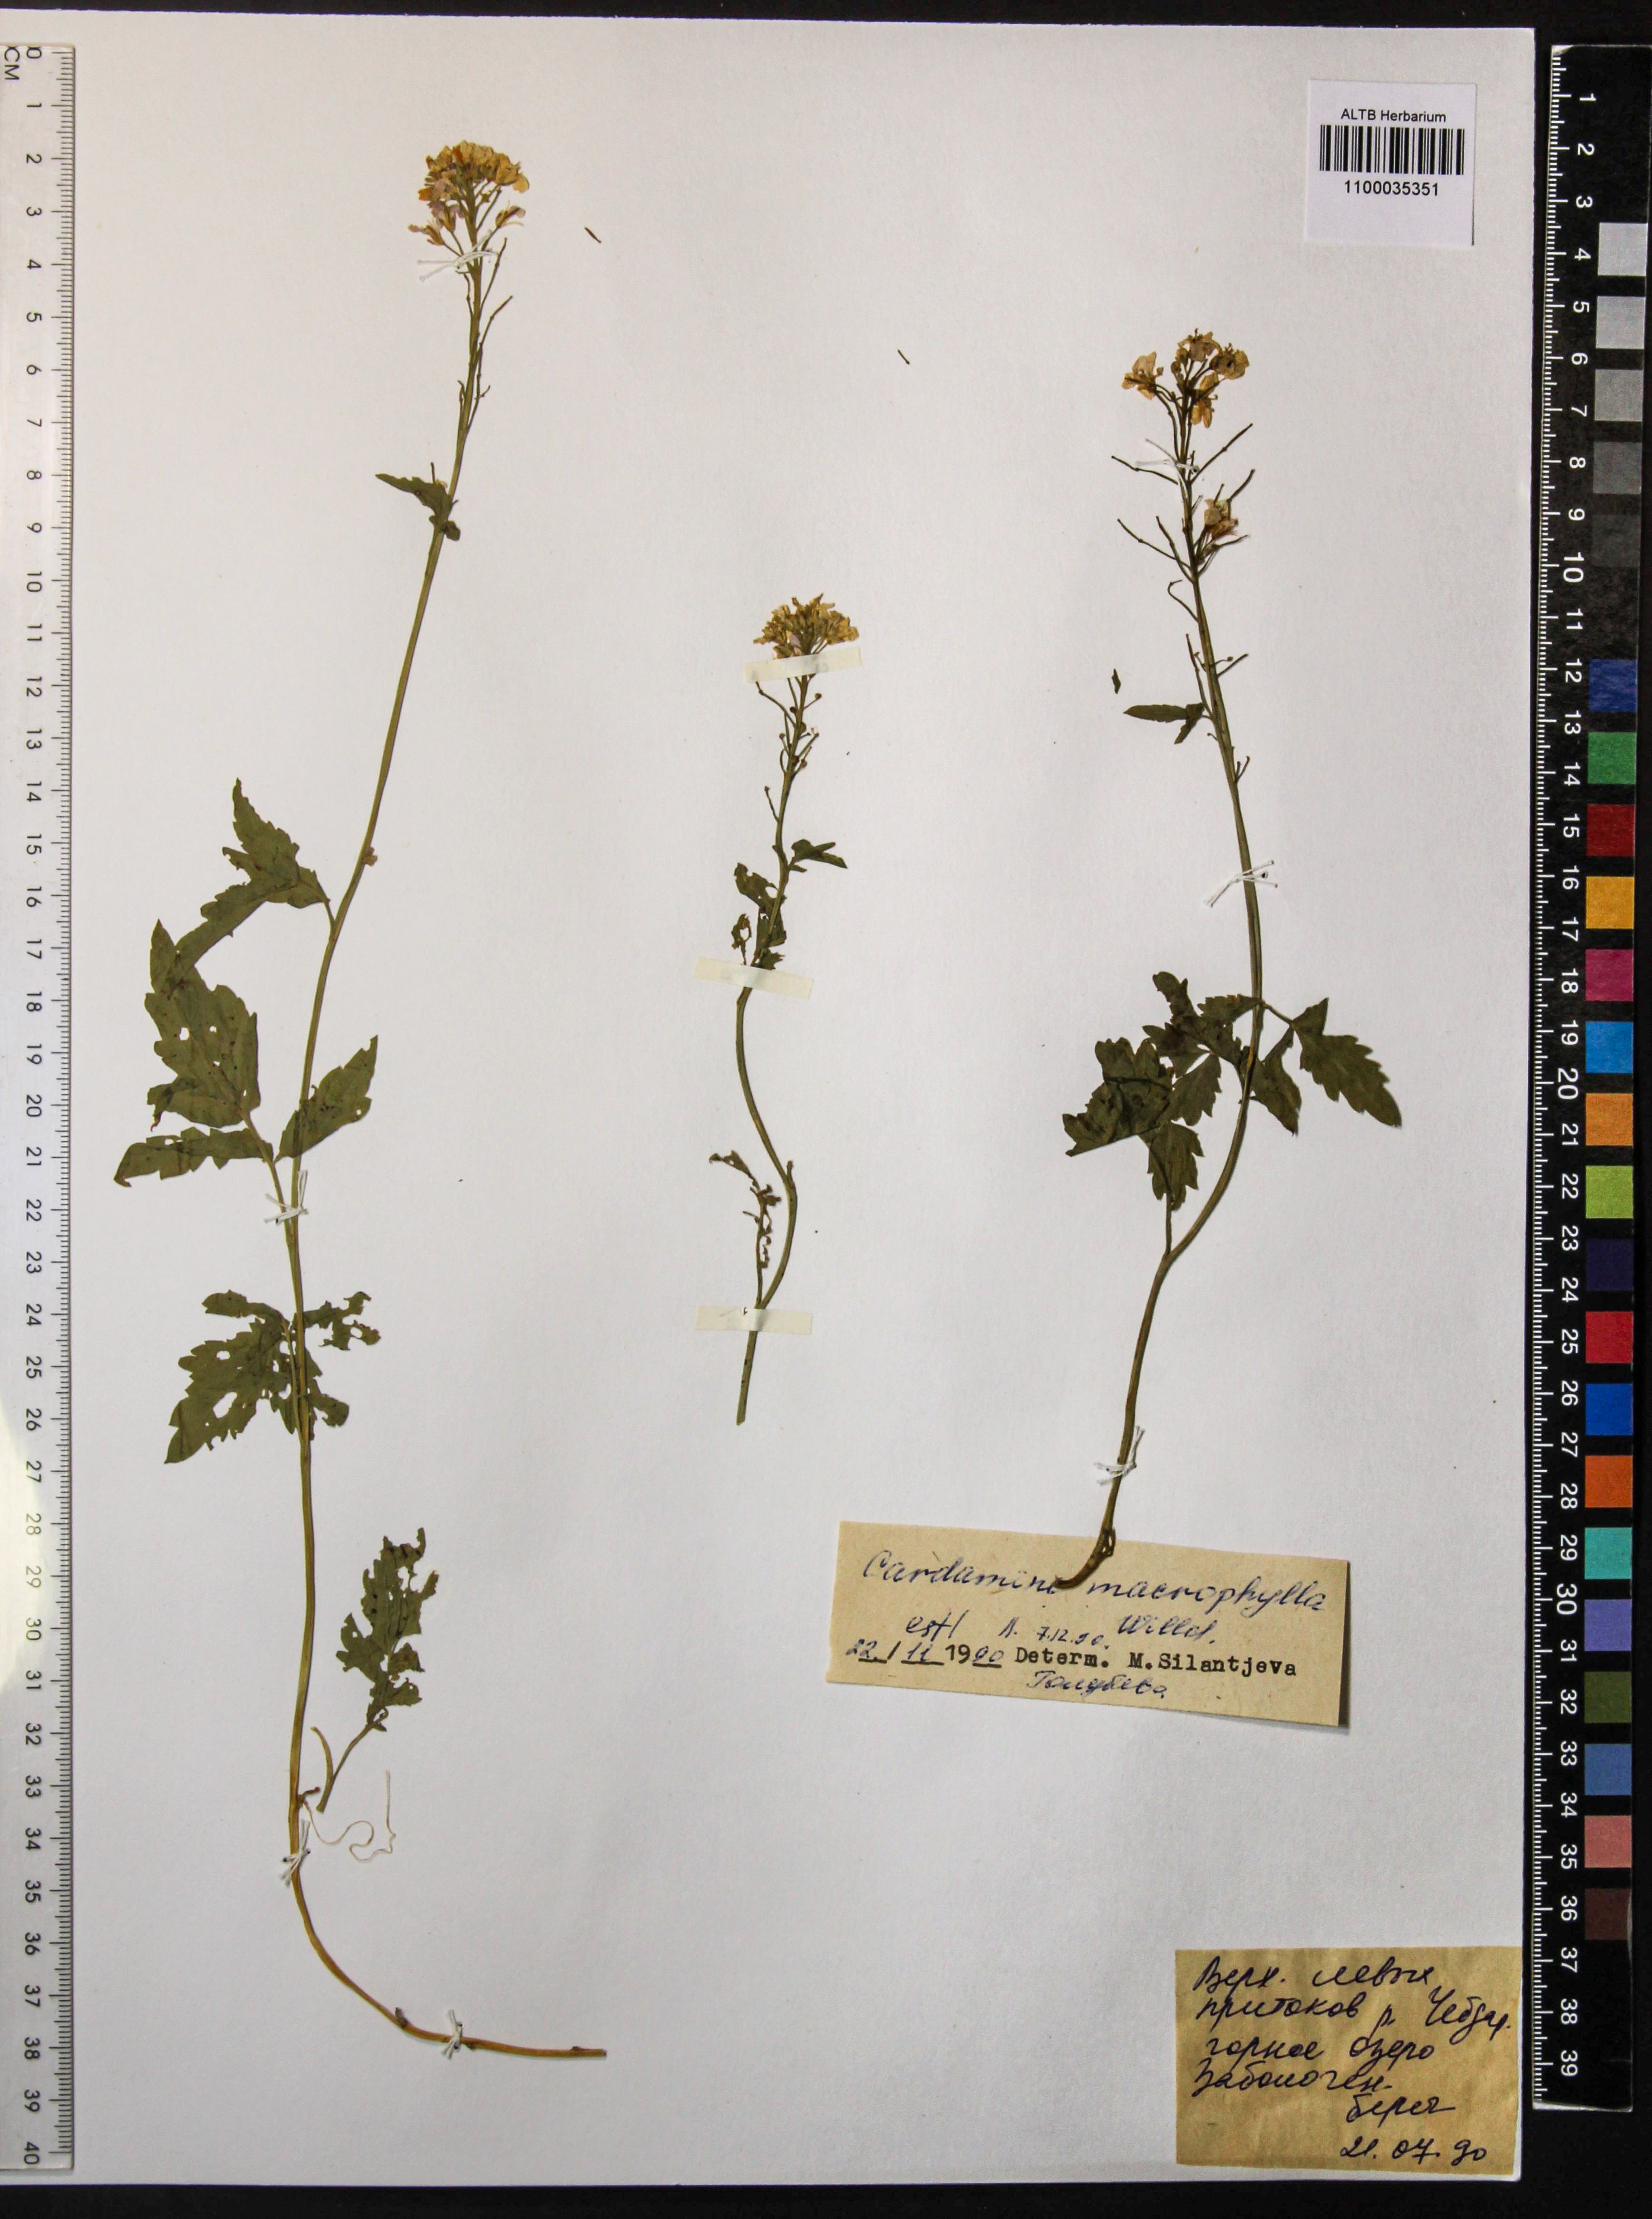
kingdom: Plantae
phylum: Tracheophyta
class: Magnoliopsida
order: Brassicales
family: Brassicaceae
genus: Cardamine
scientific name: Cardamine macrophylla
